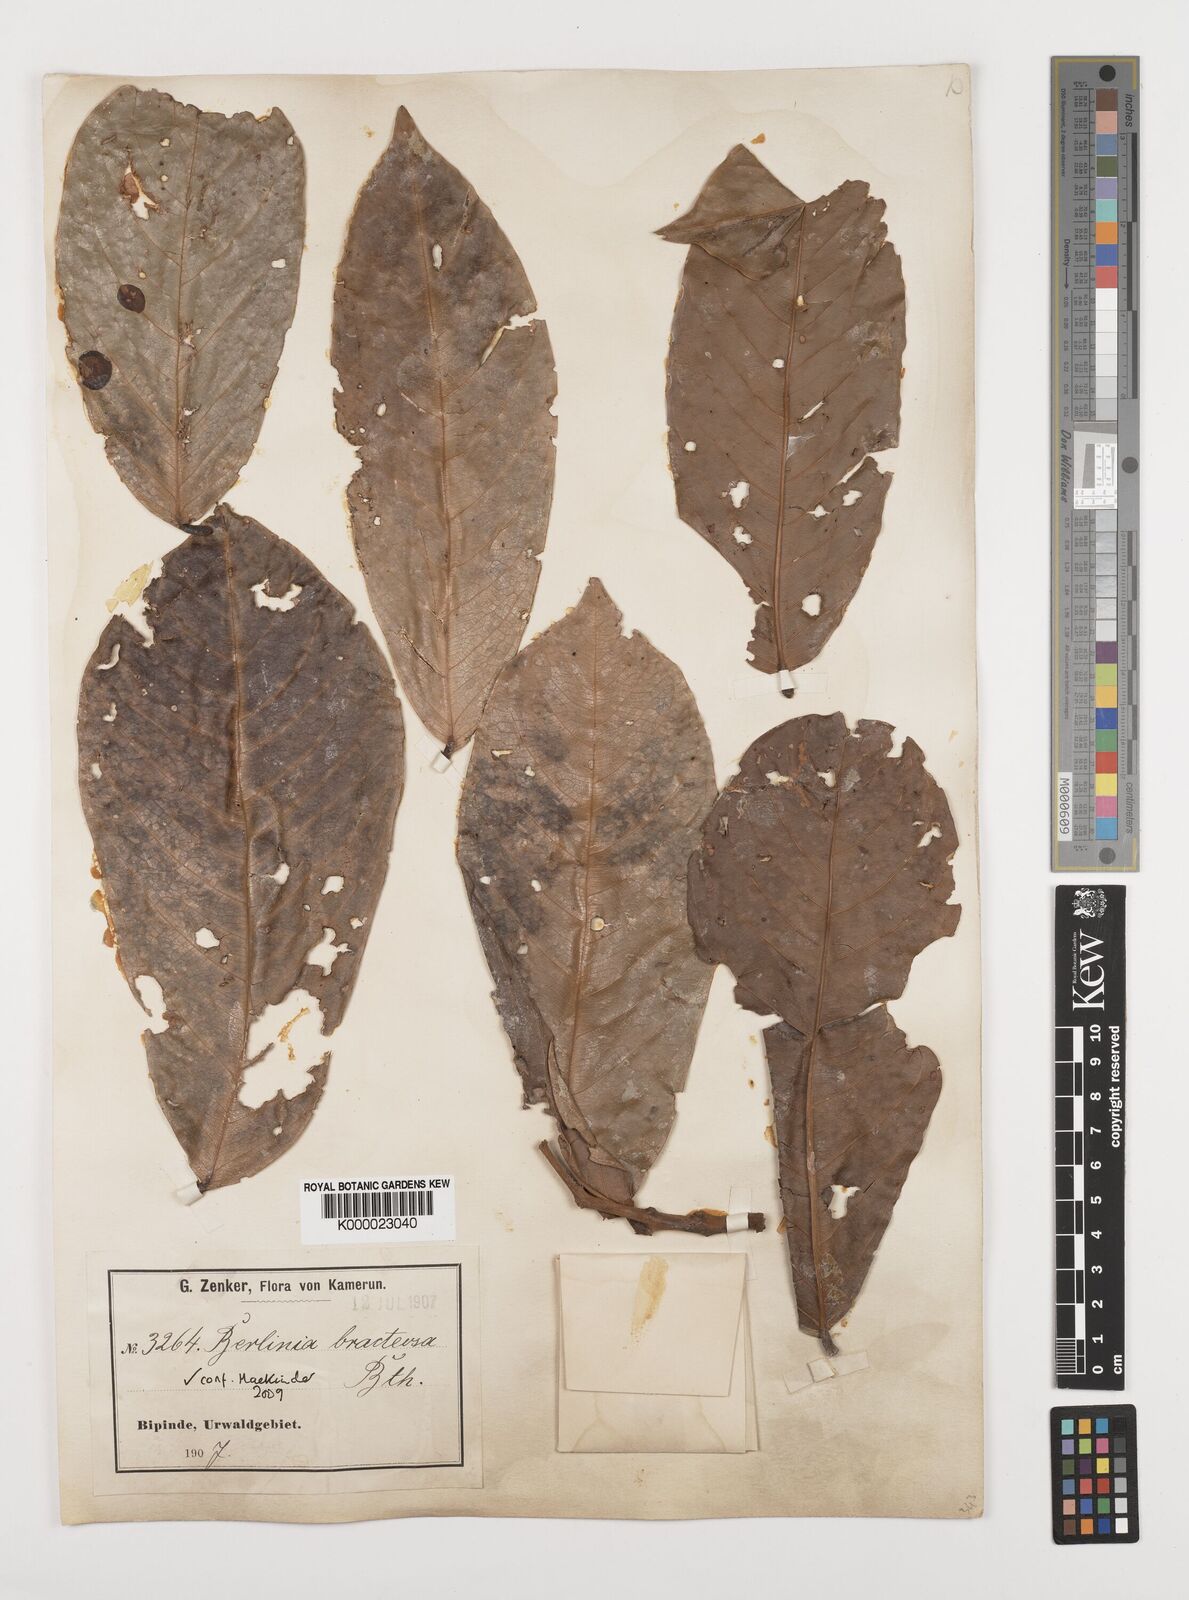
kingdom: Plantae
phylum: Tracheophyta
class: Magnoliopsida
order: Fabales
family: Fabaceae
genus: Berlinia
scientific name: Berlinia bracteosa
